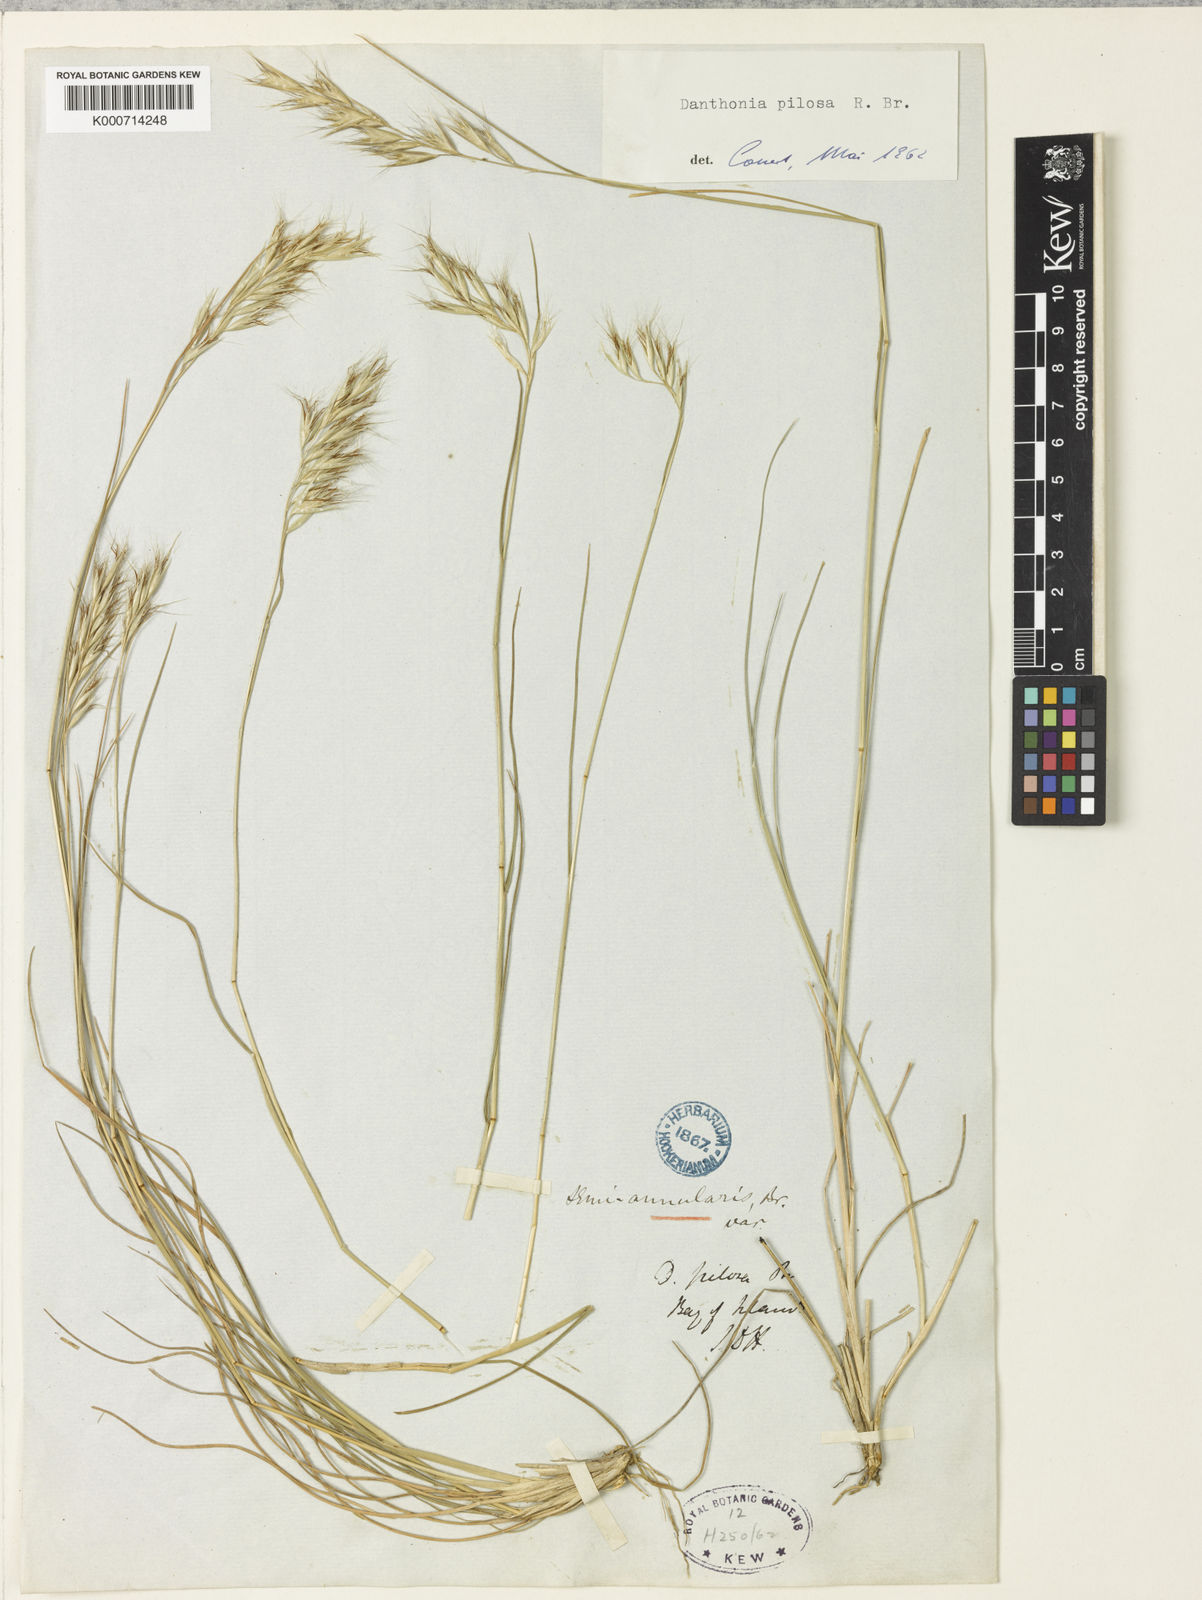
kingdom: Plantae
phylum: Tracheophyta
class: Liliopsida
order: Poales
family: Poaceae
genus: Rytidosperma
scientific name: Rytidosperma pilosum
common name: Hairy wallaby grass
